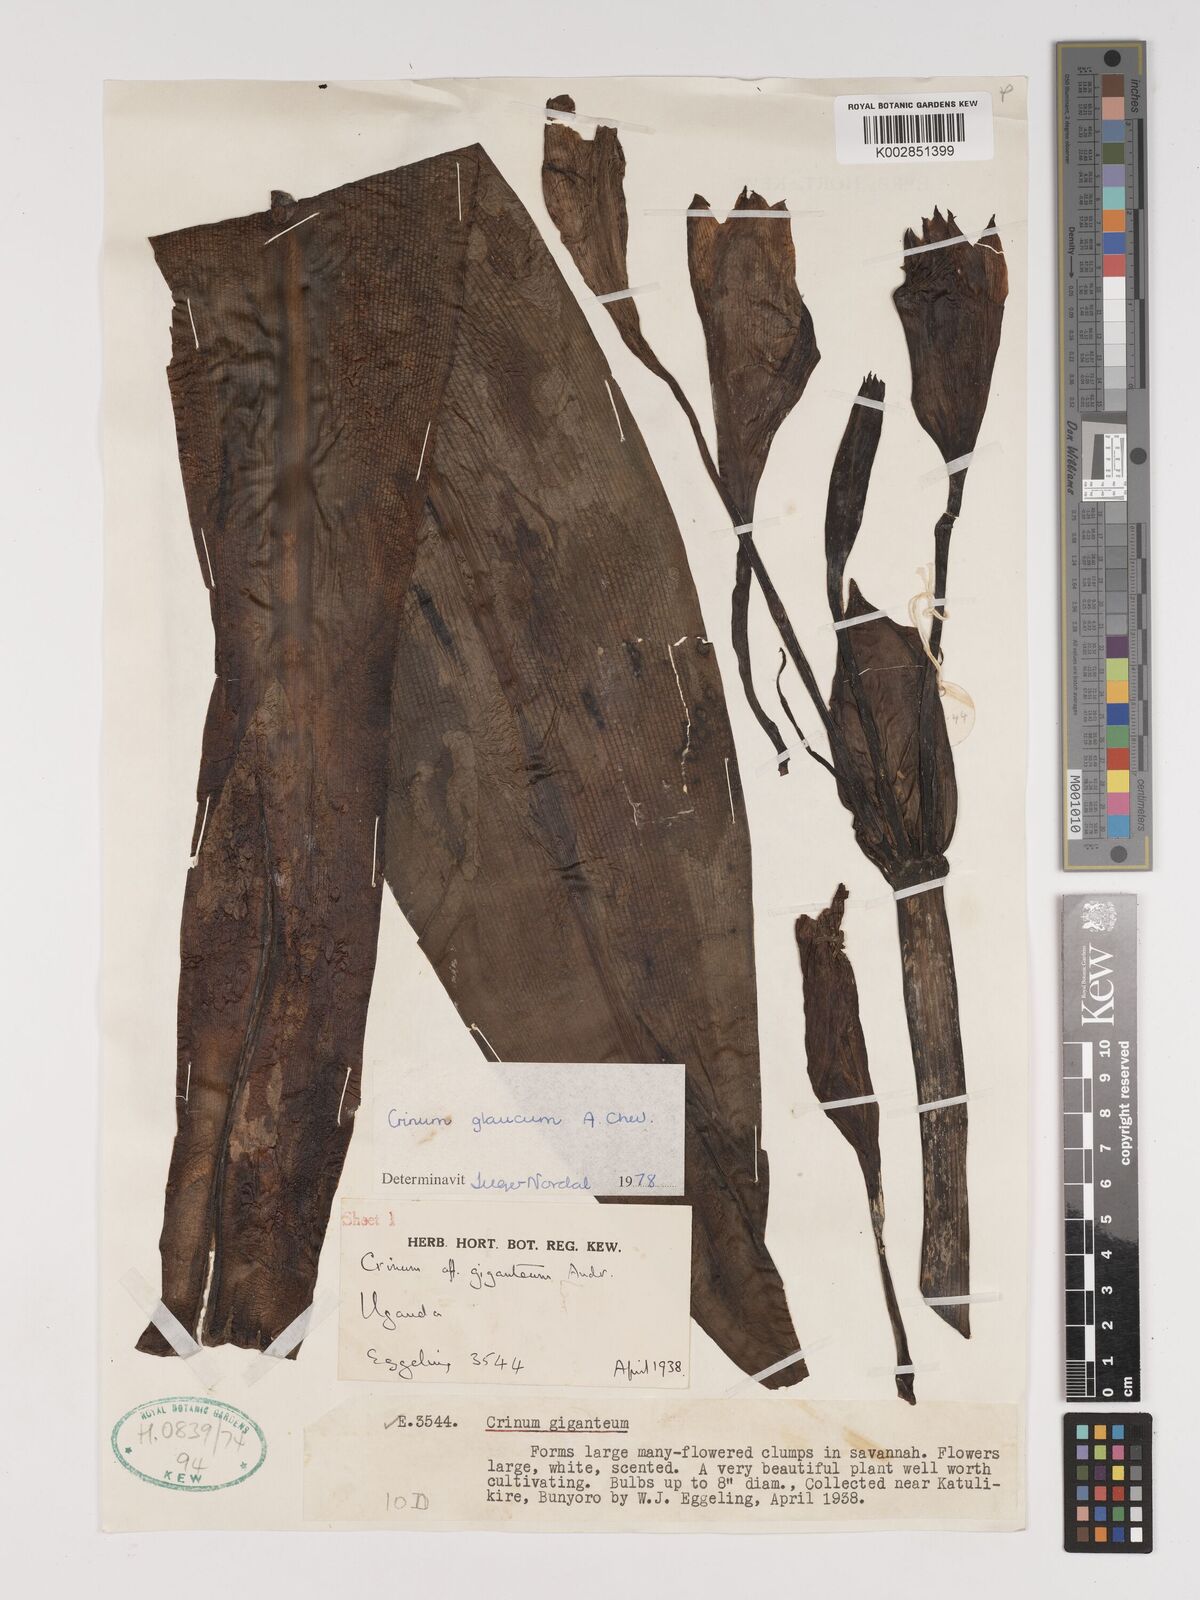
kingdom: Plantae
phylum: Tracheophyta
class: Liliopsida
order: Asparagales
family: Amaryllidaceae
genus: Crinum
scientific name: Crinum glaucum
